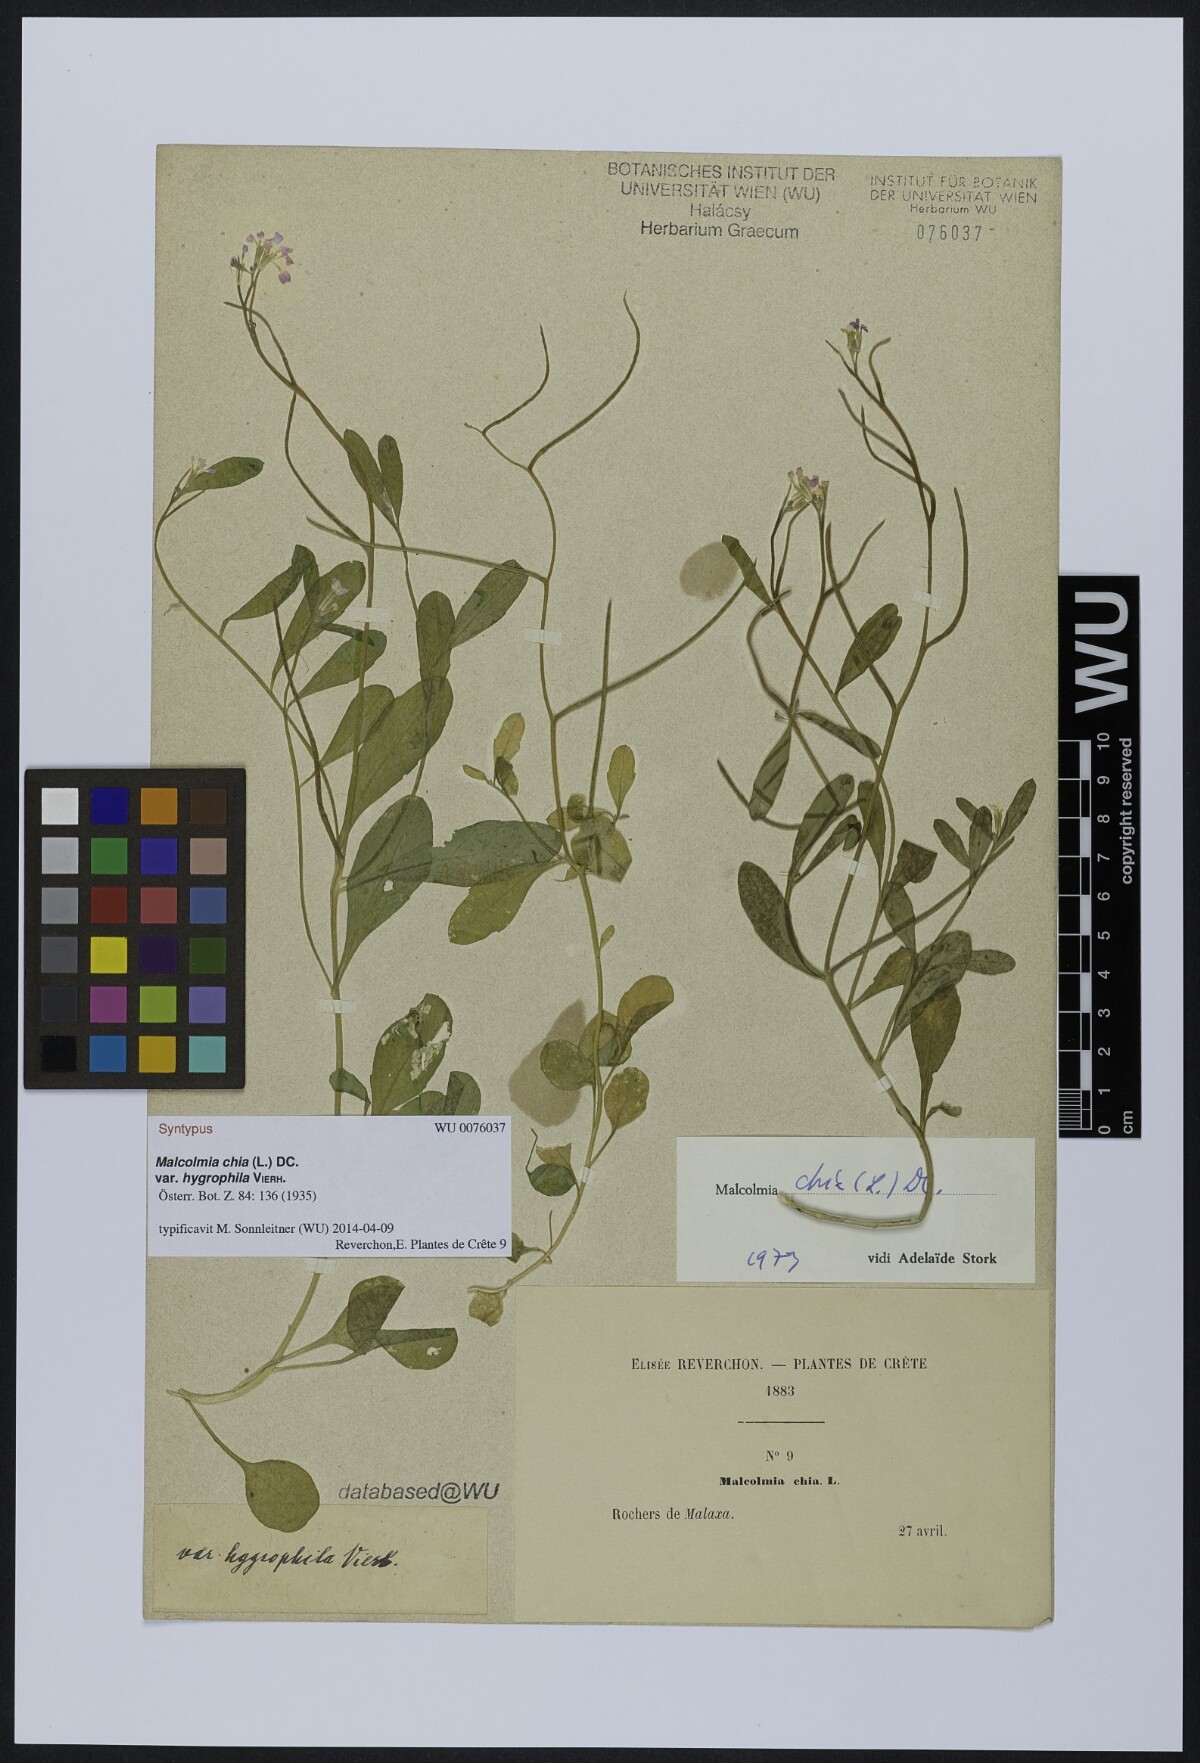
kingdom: Plantae
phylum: Tracheophyta
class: Magnoliopsida
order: Brassicales
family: Brassicaceae
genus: Malcolmia
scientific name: Malcolmia chia
